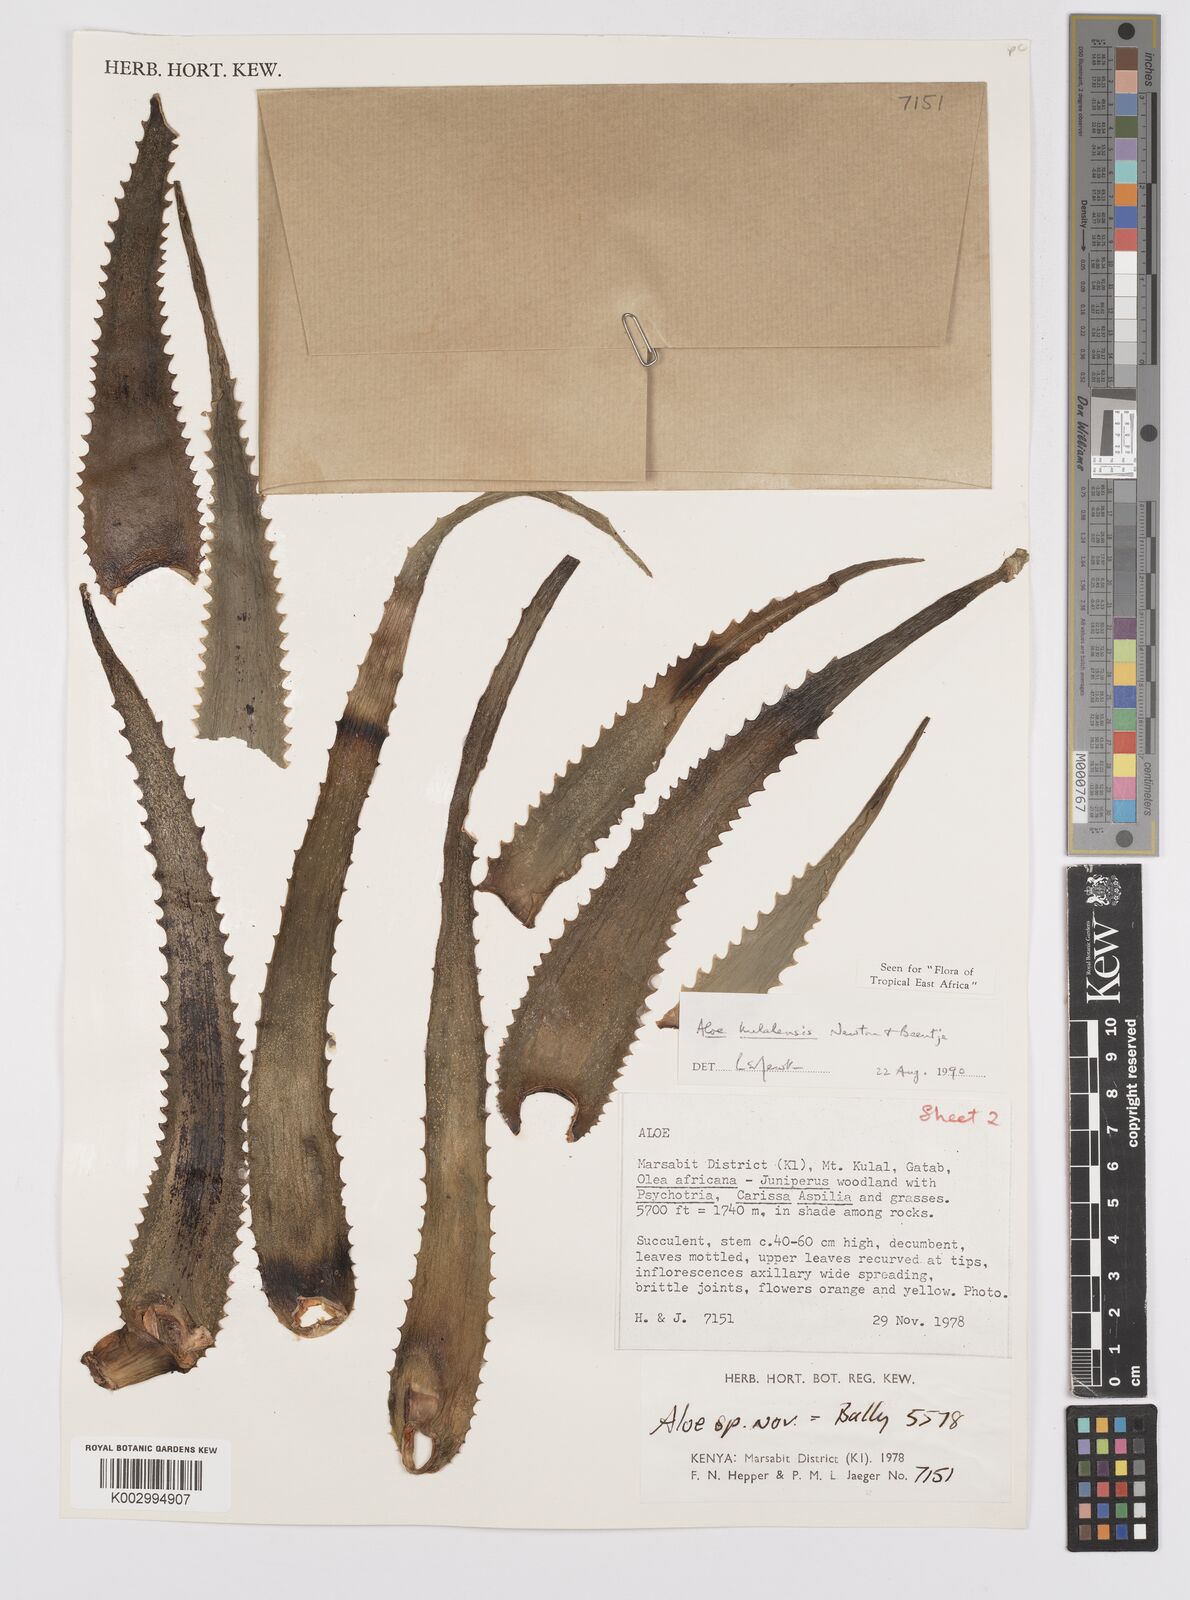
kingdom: Plantae
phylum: Tracheophyta
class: Liliopsida
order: Asparagales
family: Asphodelaceae
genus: Aloe
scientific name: Aloe kulalensis
